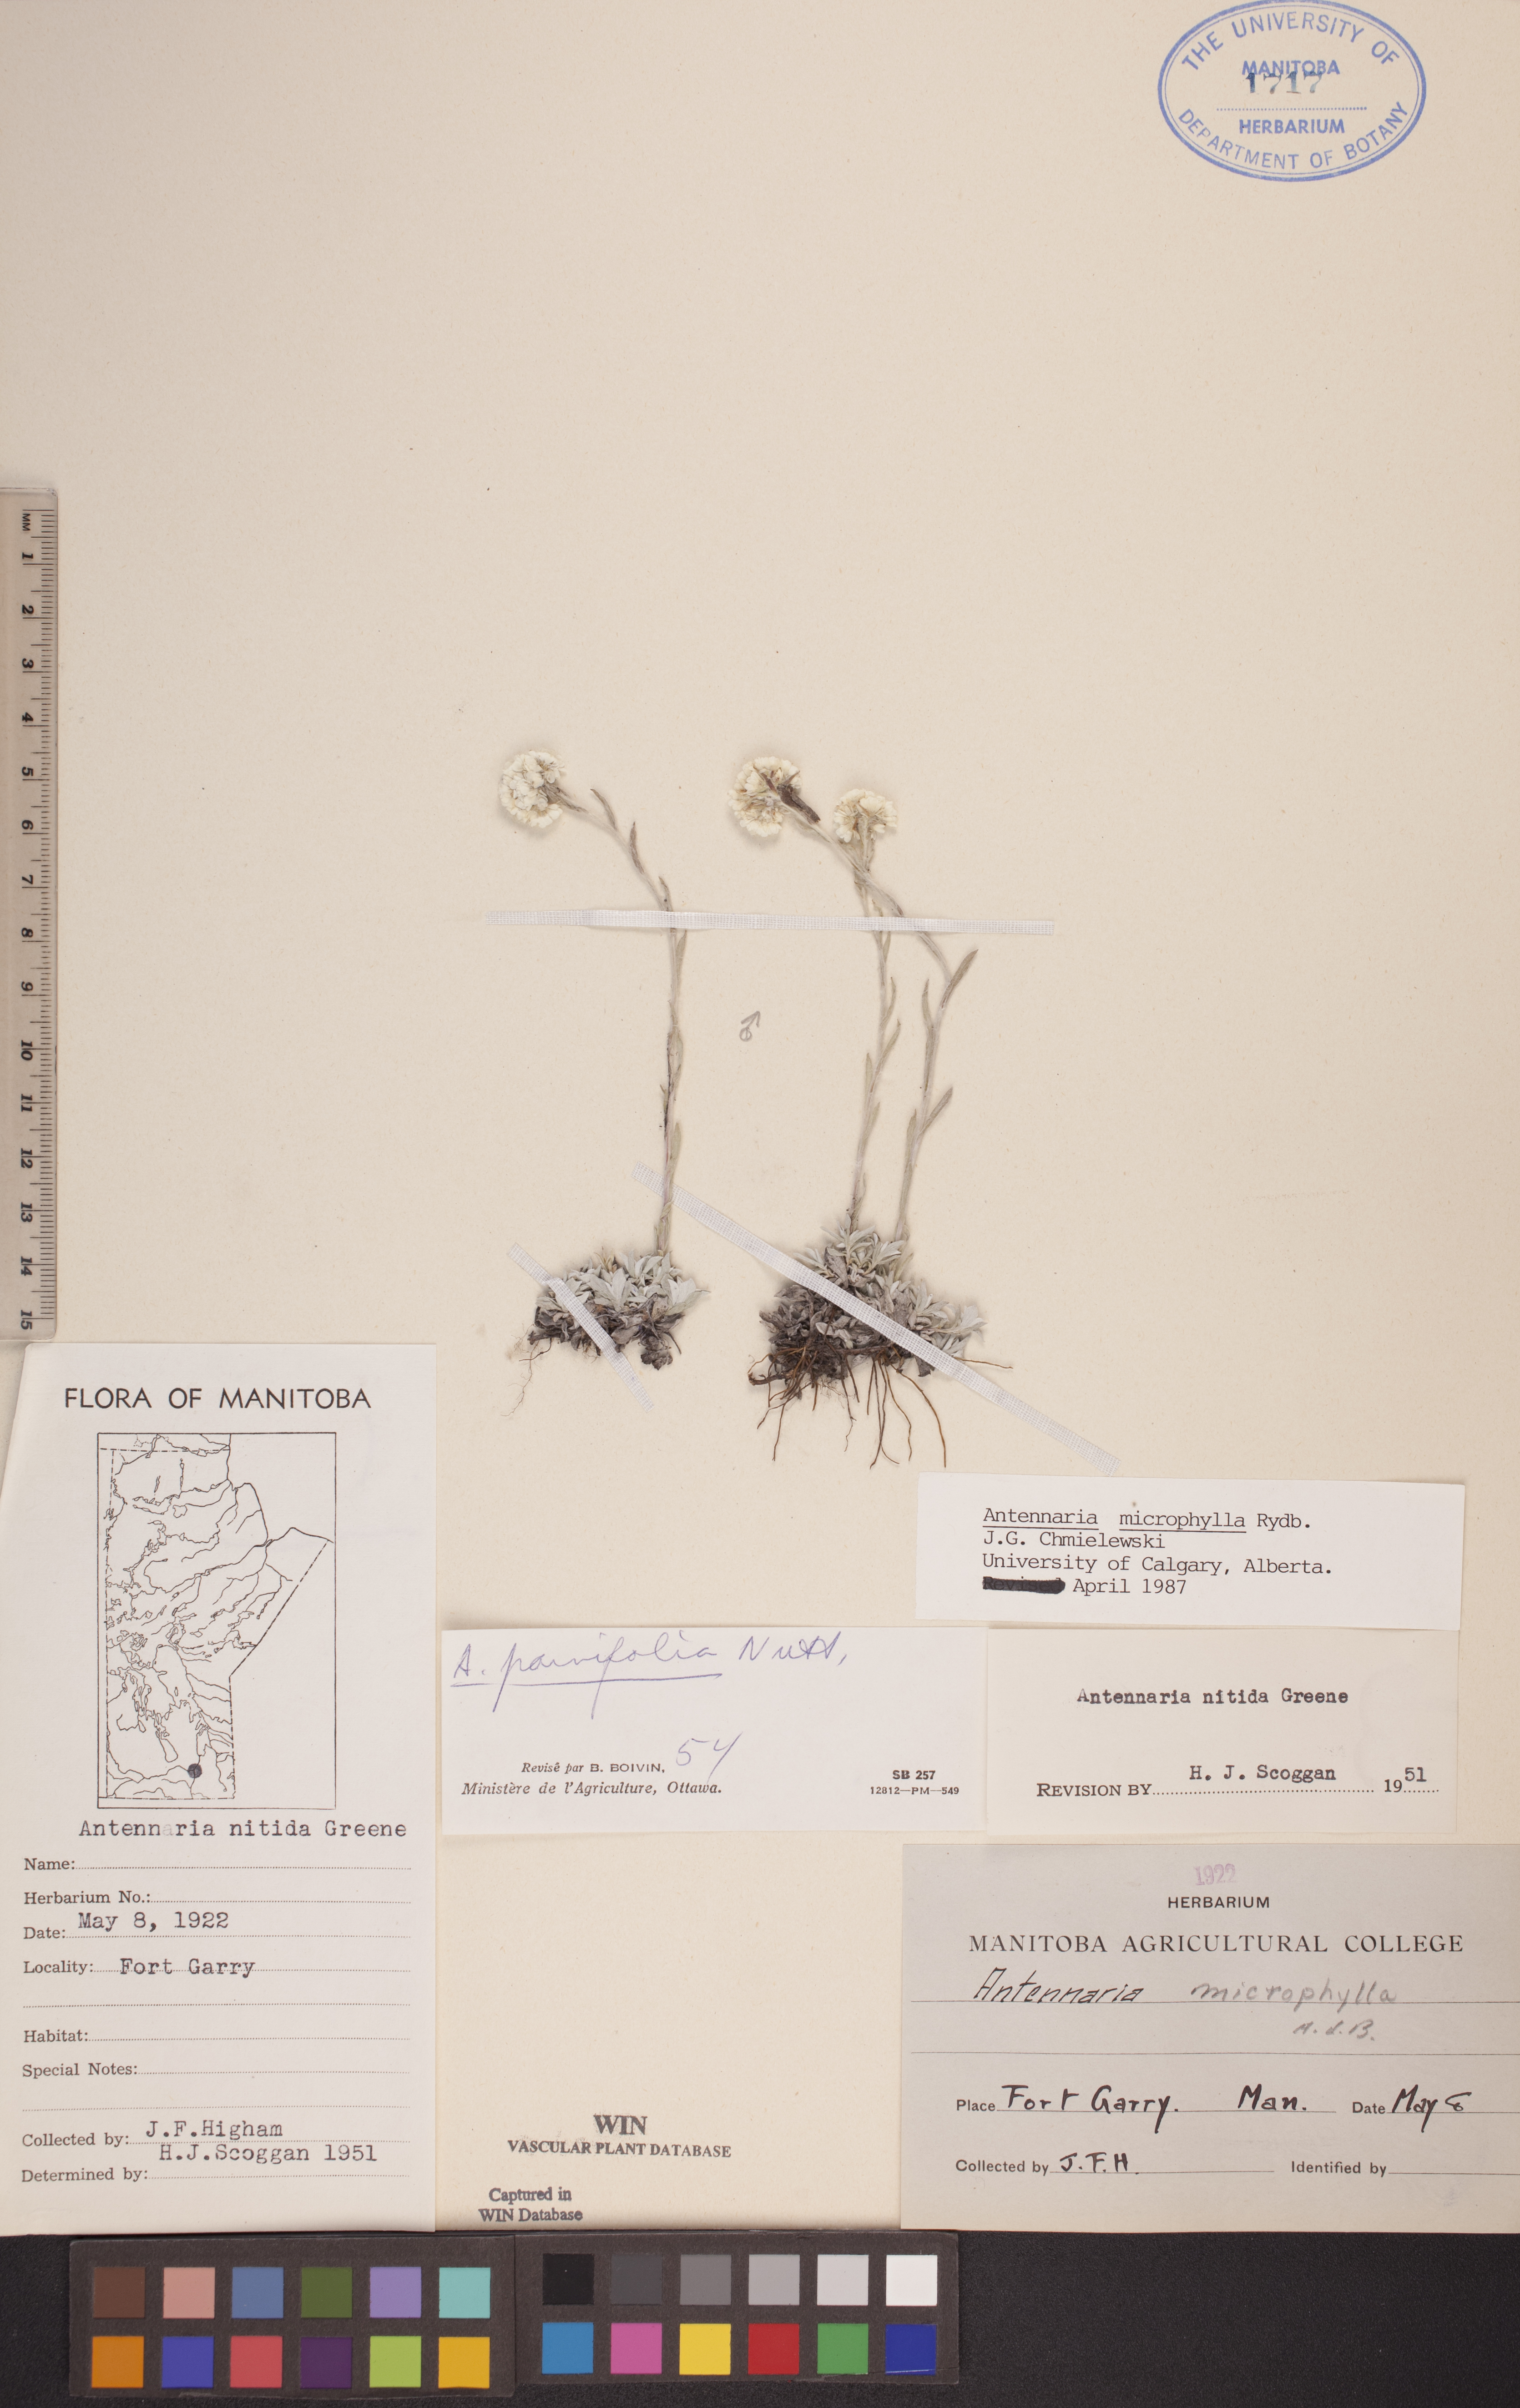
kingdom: Plantae
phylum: Tracheophyta
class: Magnoliopsida
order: Asterales
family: Asteraceae
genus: Antennaria
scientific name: Antennaria microphylla
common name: Littleleaf pussytoes
